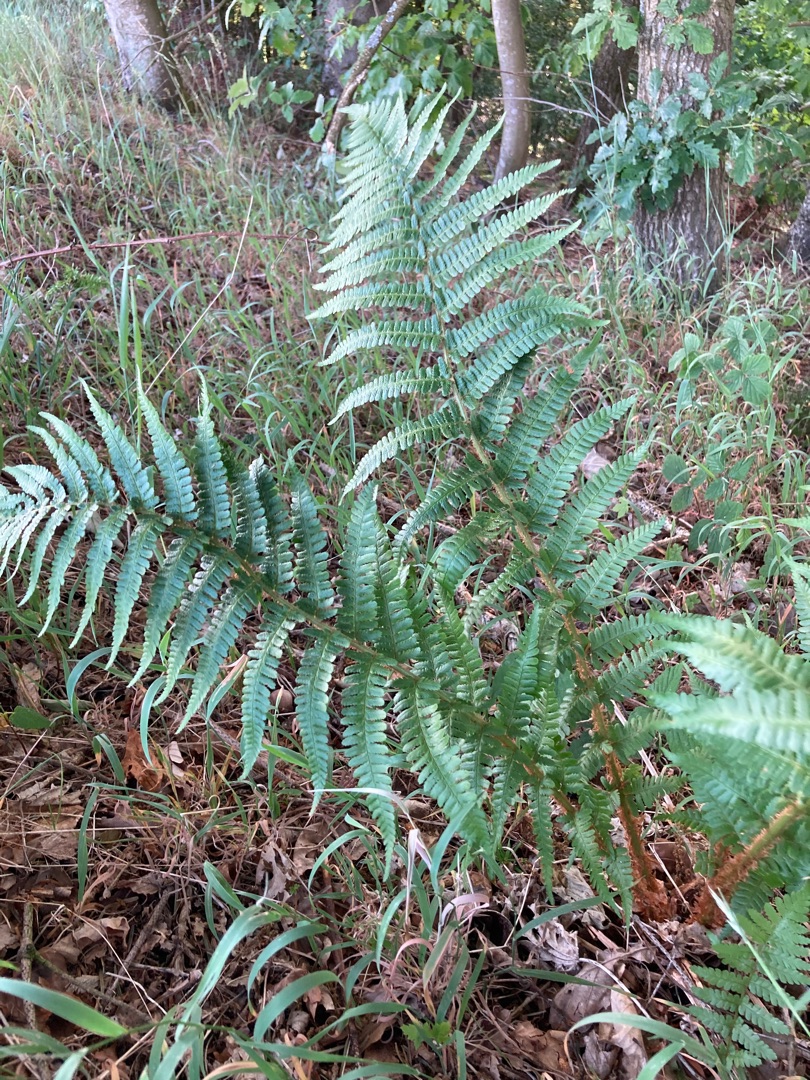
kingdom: Plantae
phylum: Tracheophyta
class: Polypodiopsida
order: Polypodiales
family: Dryopteridaceae
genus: Dryopteris
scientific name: Dryopteris filix-mas
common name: Almindelig mangeløv
